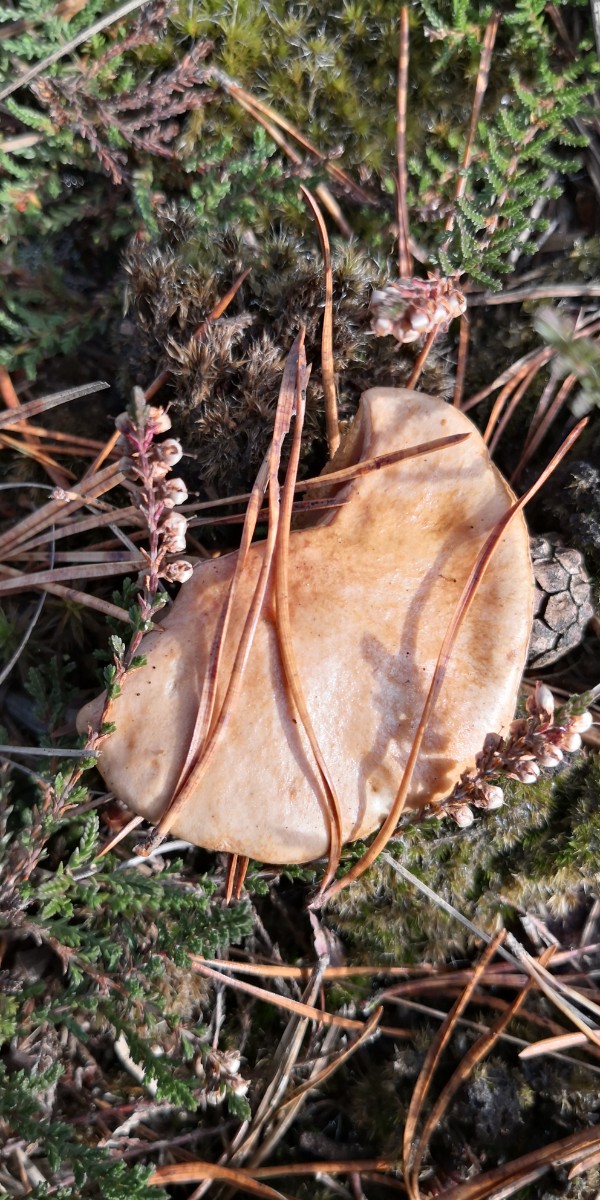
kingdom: Fungi
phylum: Basidiomycota
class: Agaricomycetes
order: Boletales
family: Suillaceae
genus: Suillus
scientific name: Suillus bovinus
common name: grovporet slimrørhat
